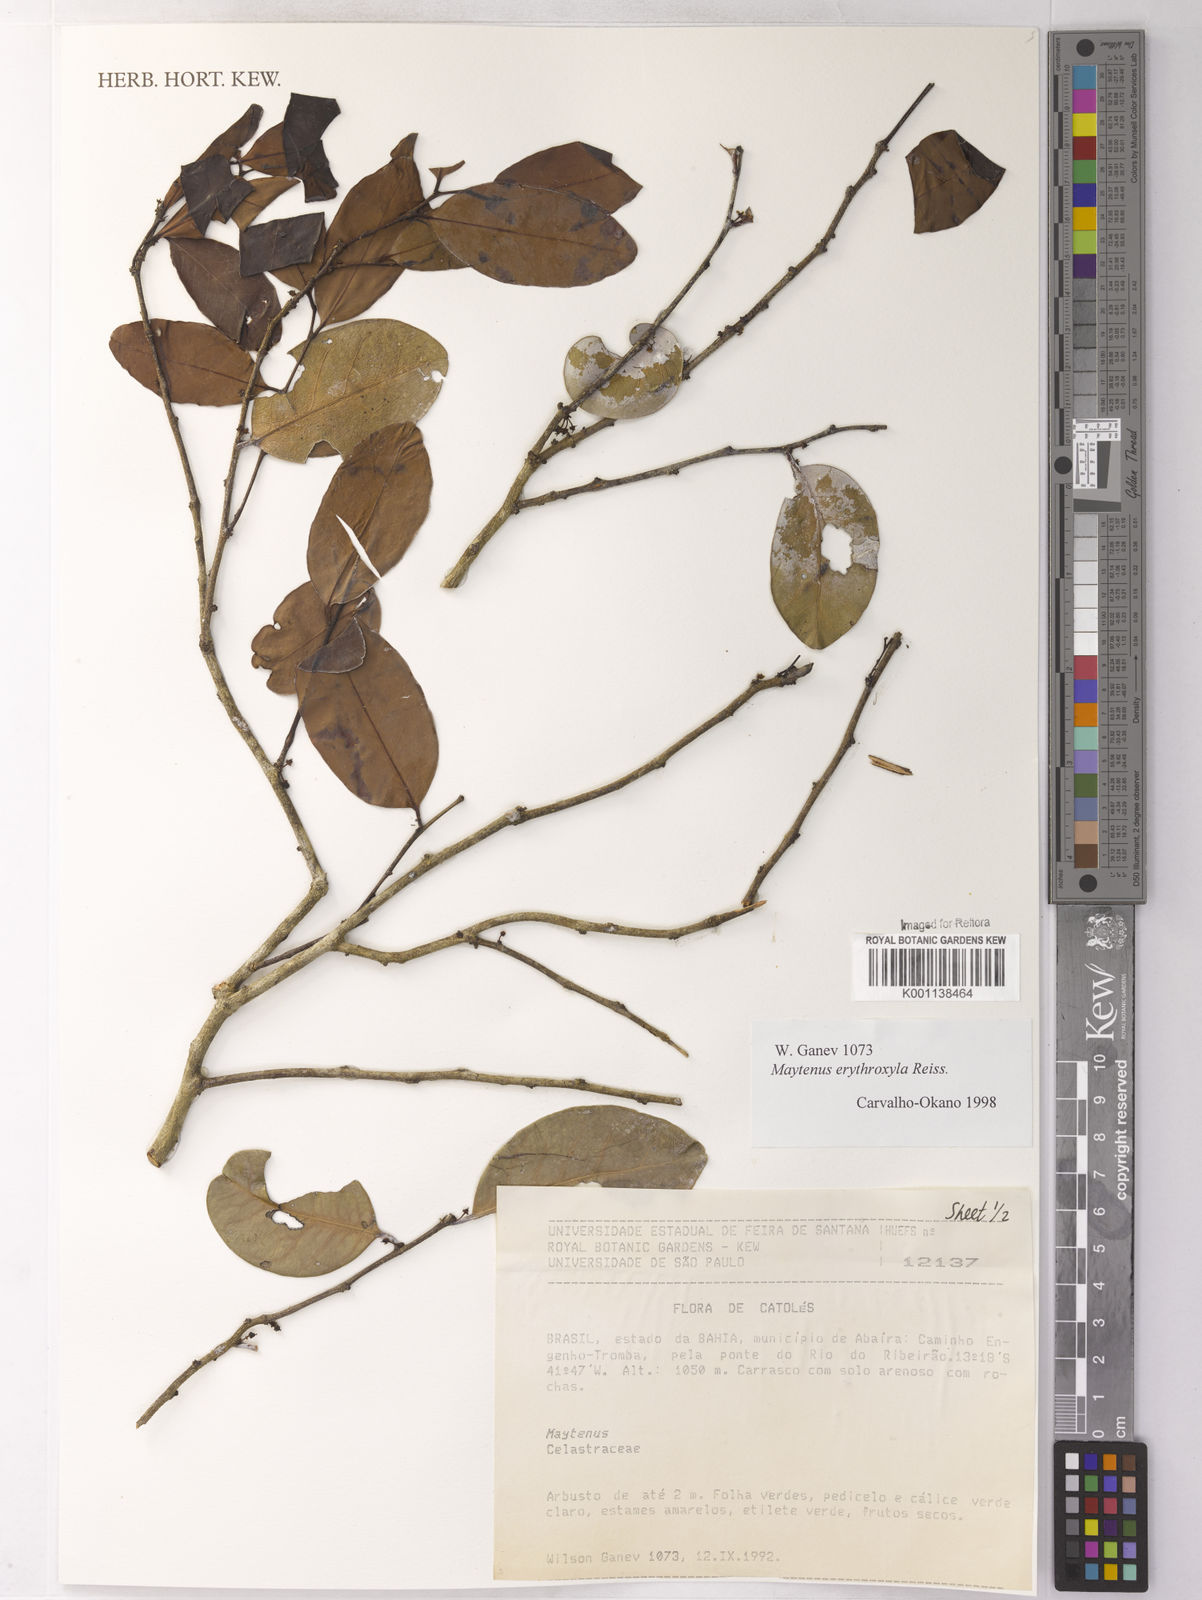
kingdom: Plantae
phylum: Tracheophyta
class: Magnoliopsida
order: Celastrales
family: Celastraceae
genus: Monteverdia
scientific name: Monteverdia erythroxylon
